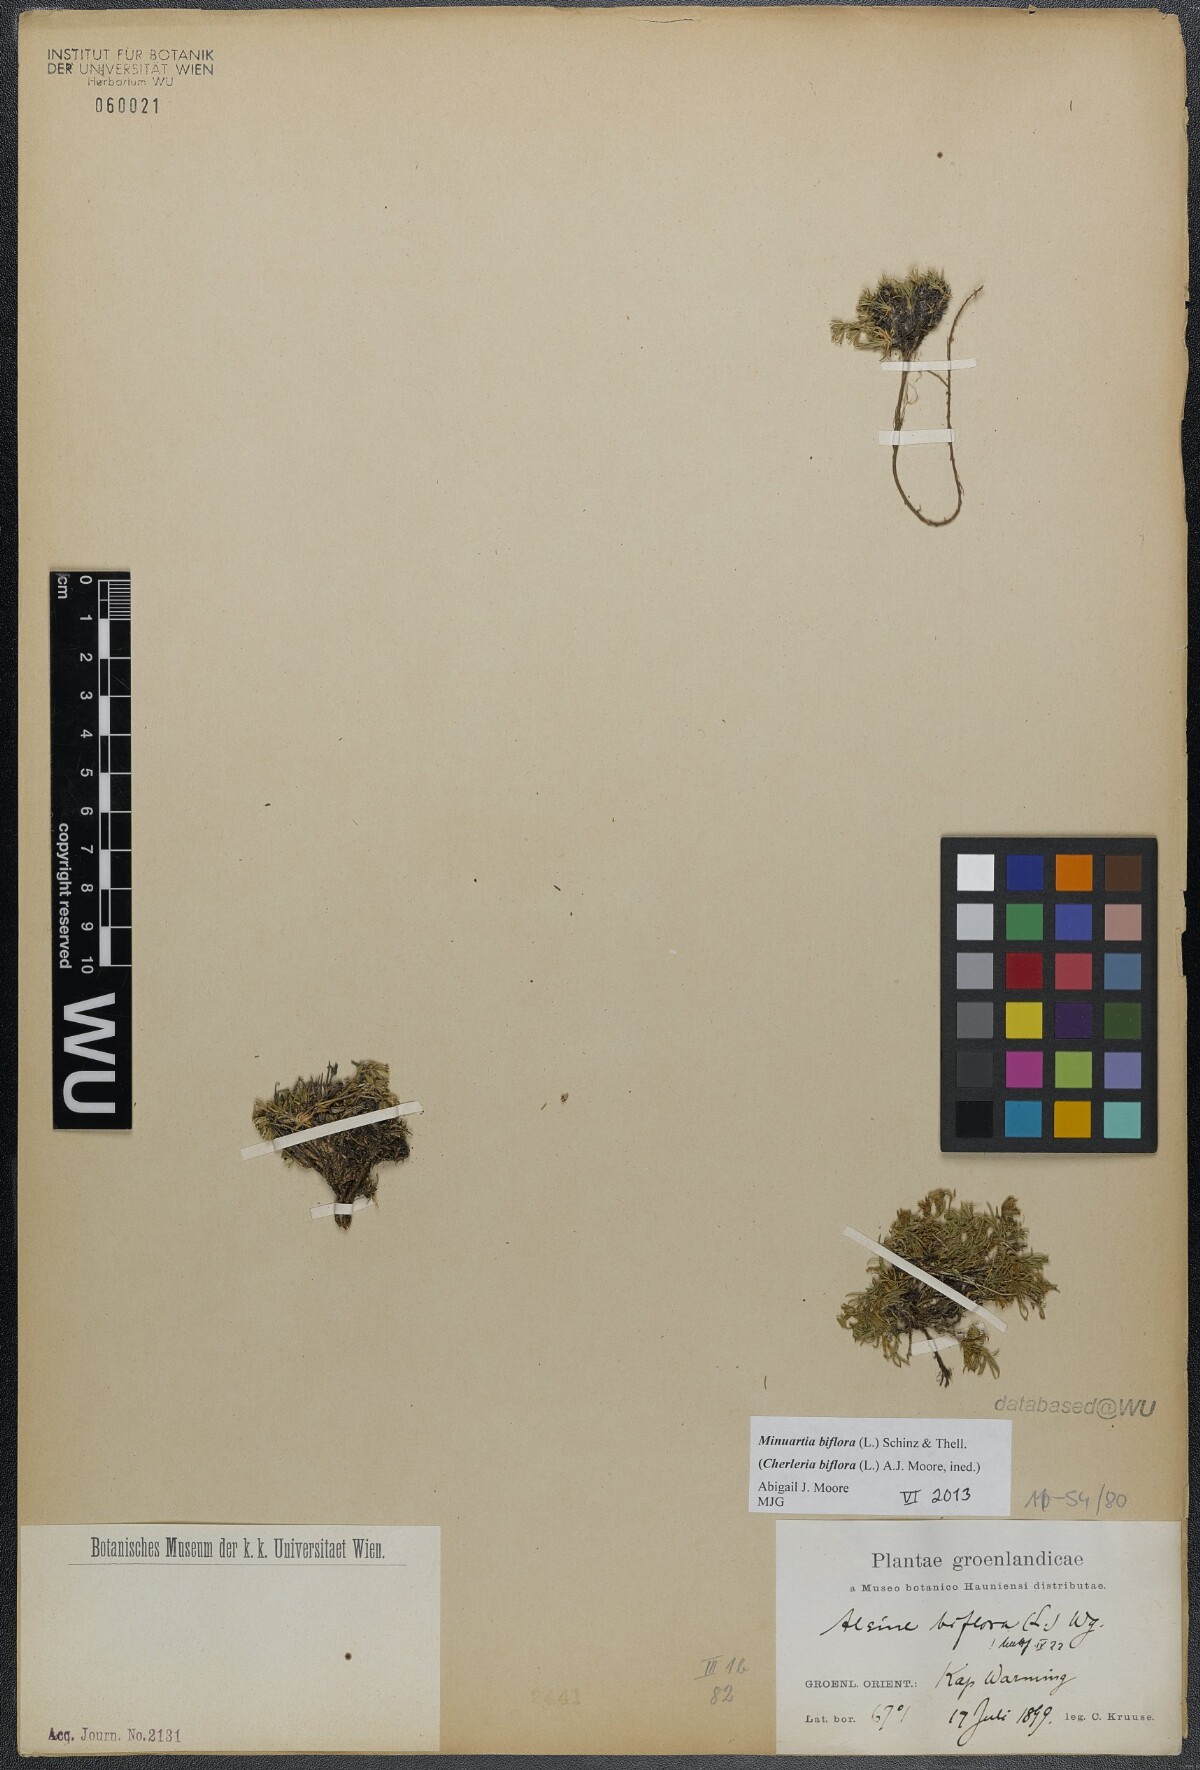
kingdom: Plantae
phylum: Tracheophyta
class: Magnoliopsida
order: Caryophyllales
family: Caryophyllaceae
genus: Cherleria
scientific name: Cherleria biflora
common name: Mountain sandwort
